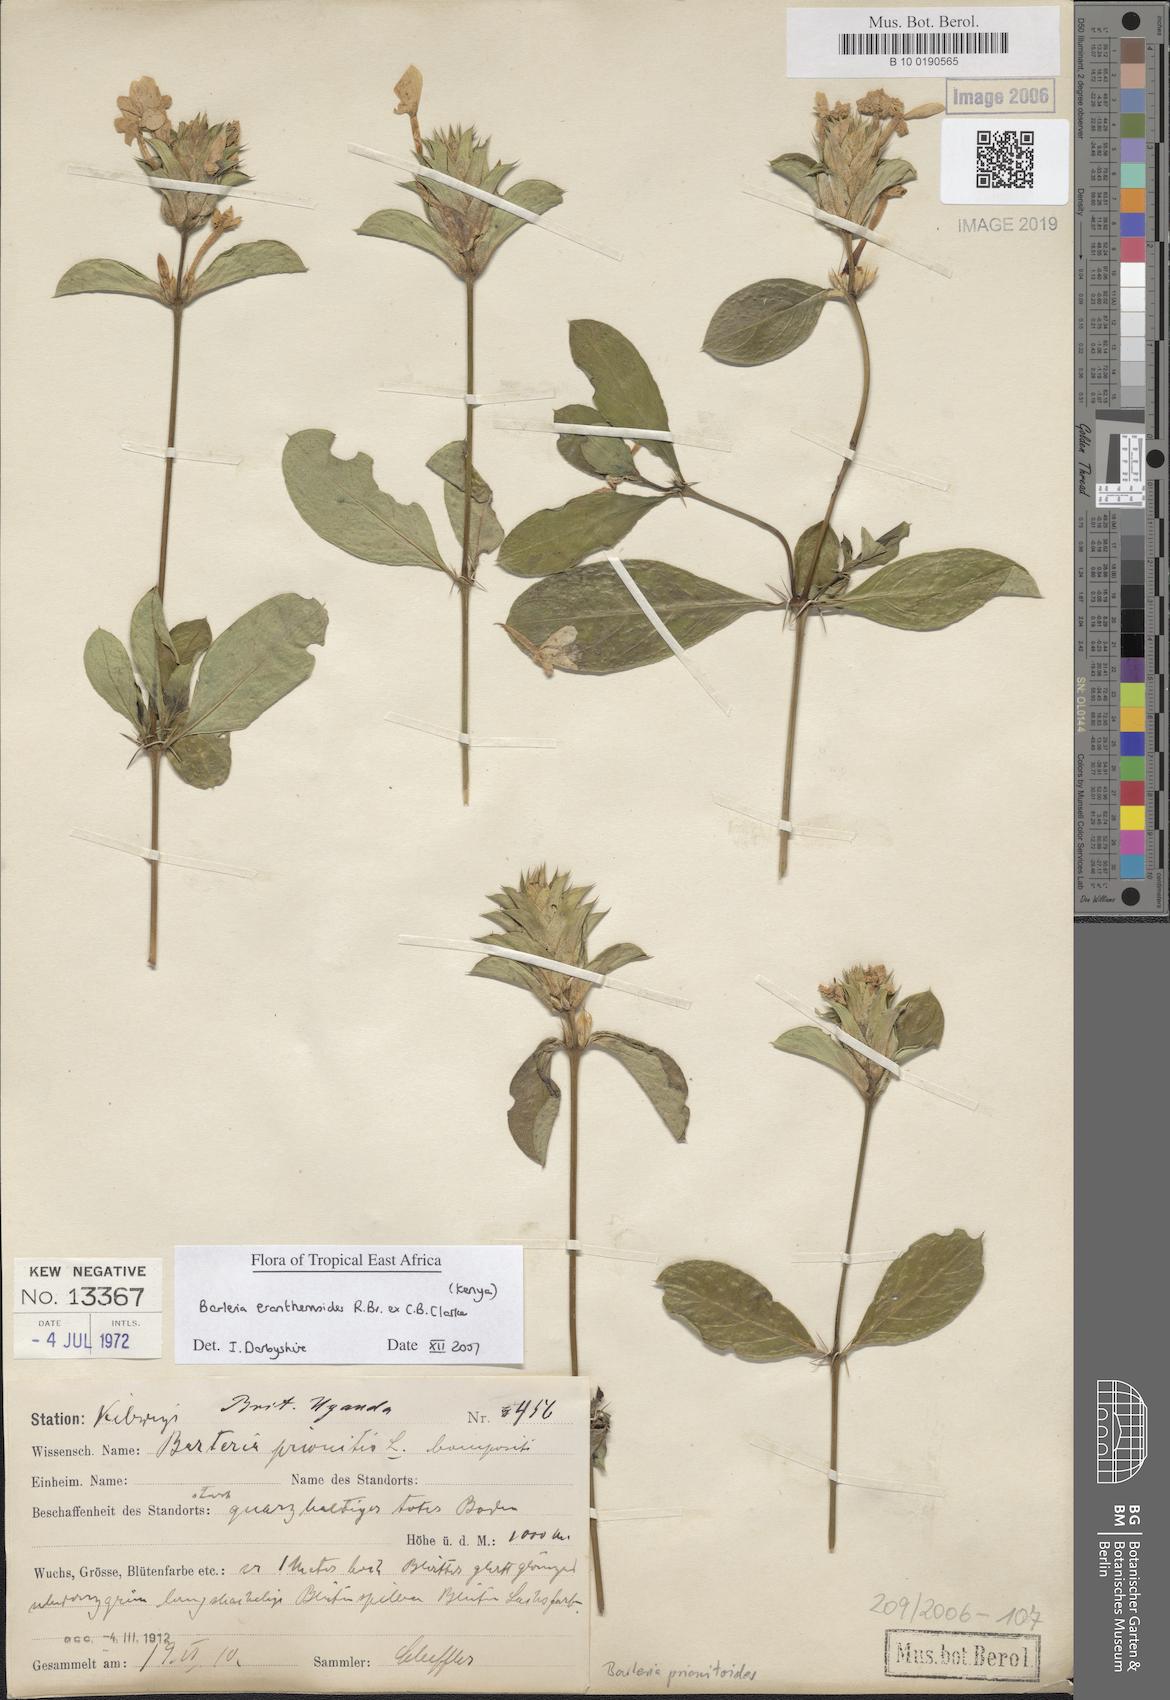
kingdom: Plantae
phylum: Tracheophyta
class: Magnoliopsida
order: Lamiales
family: Acanthaceae
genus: Barleria
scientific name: Barleria prionitis
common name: Barleria
